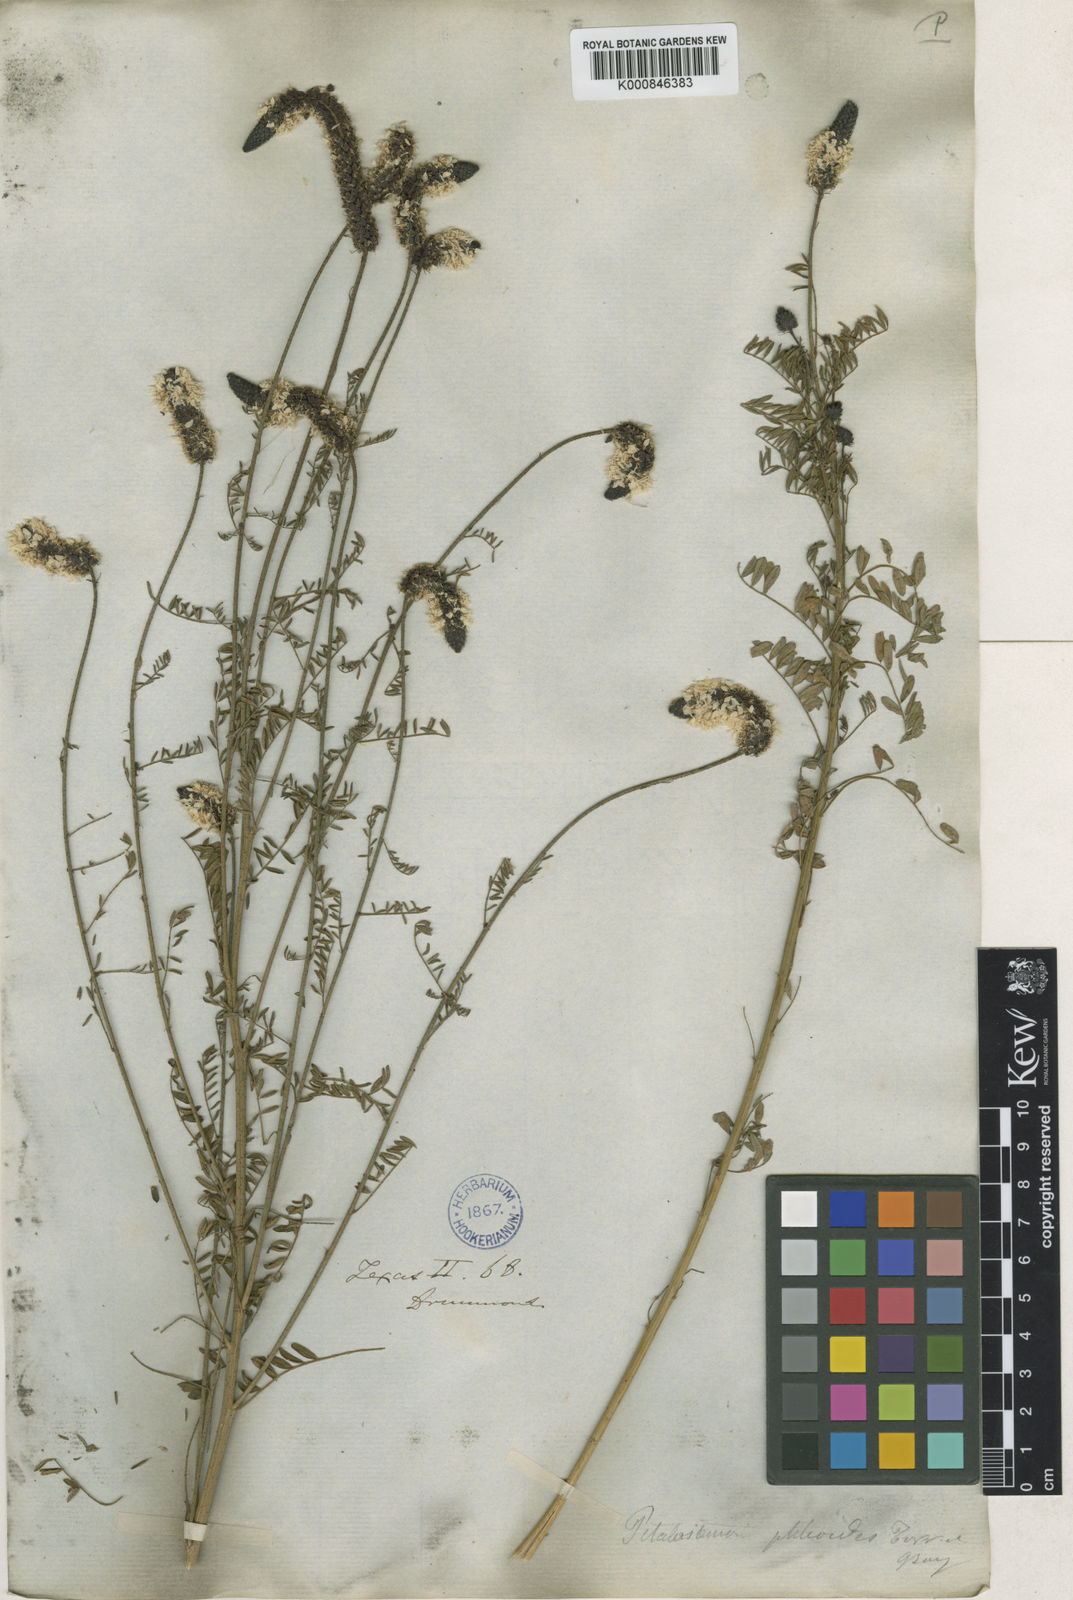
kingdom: Plantae
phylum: Tracheophyta
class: Magnoliopsida
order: Fabales
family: Fabaceae
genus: Dalea
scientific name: Dalea phleoides
